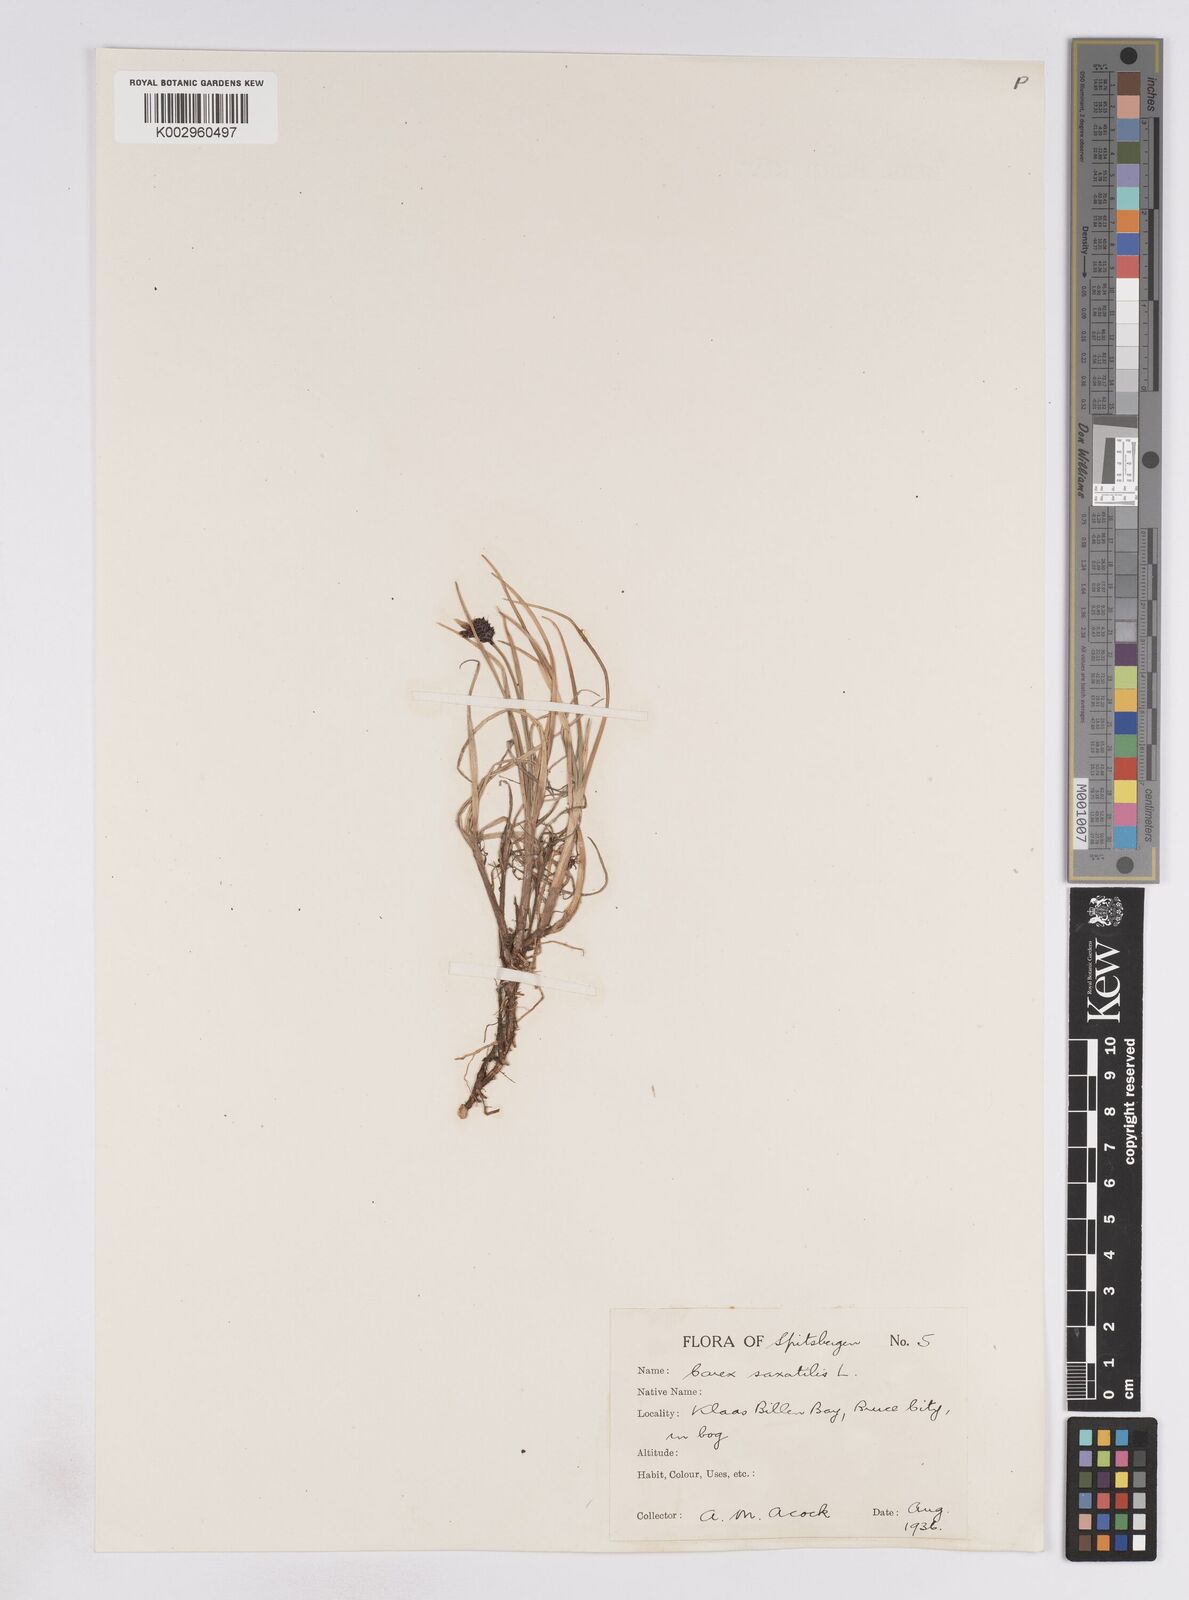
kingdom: Plantae
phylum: Tracheophyta
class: Liliopsida
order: Poales
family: Cyperaceae
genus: Carex
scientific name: Carex saxatilis
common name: Russet sedge
